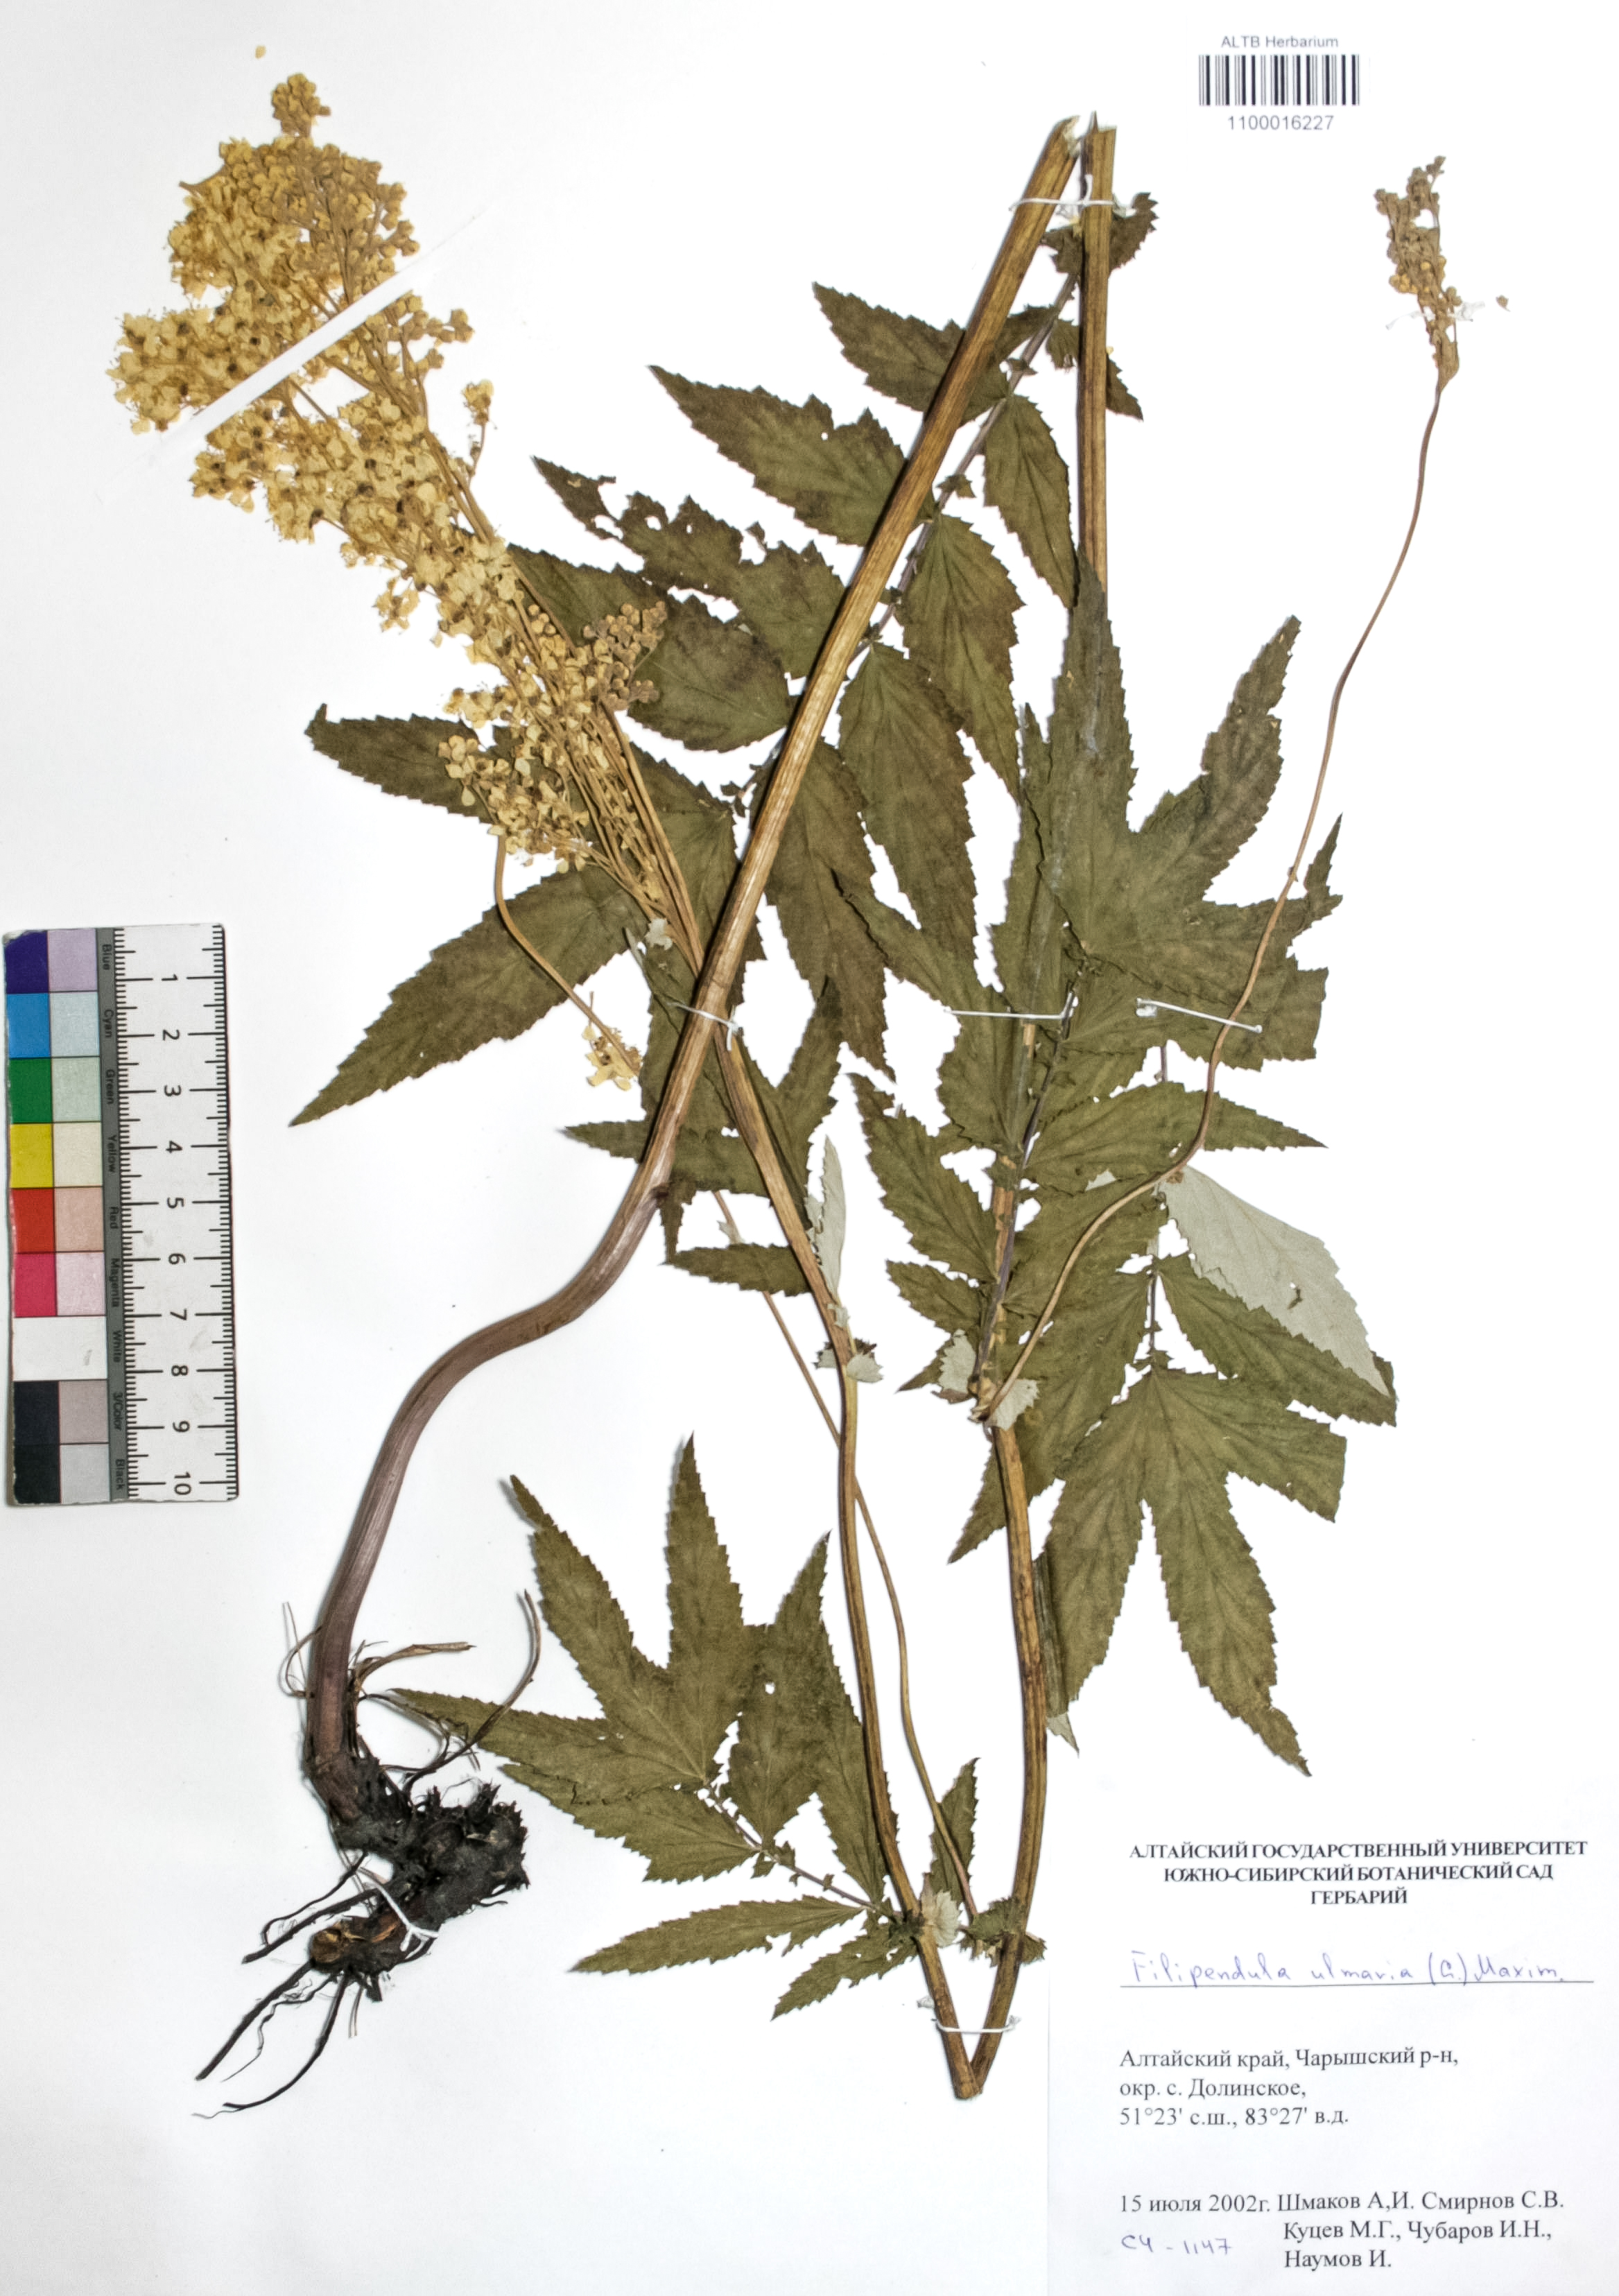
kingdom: Plantae
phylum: Tracheophyta
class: Magnoliopsida
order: Rosales
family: Rosaceae
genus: Filipendula
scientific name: Filipendula ulmaria
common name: Meadowsweet
